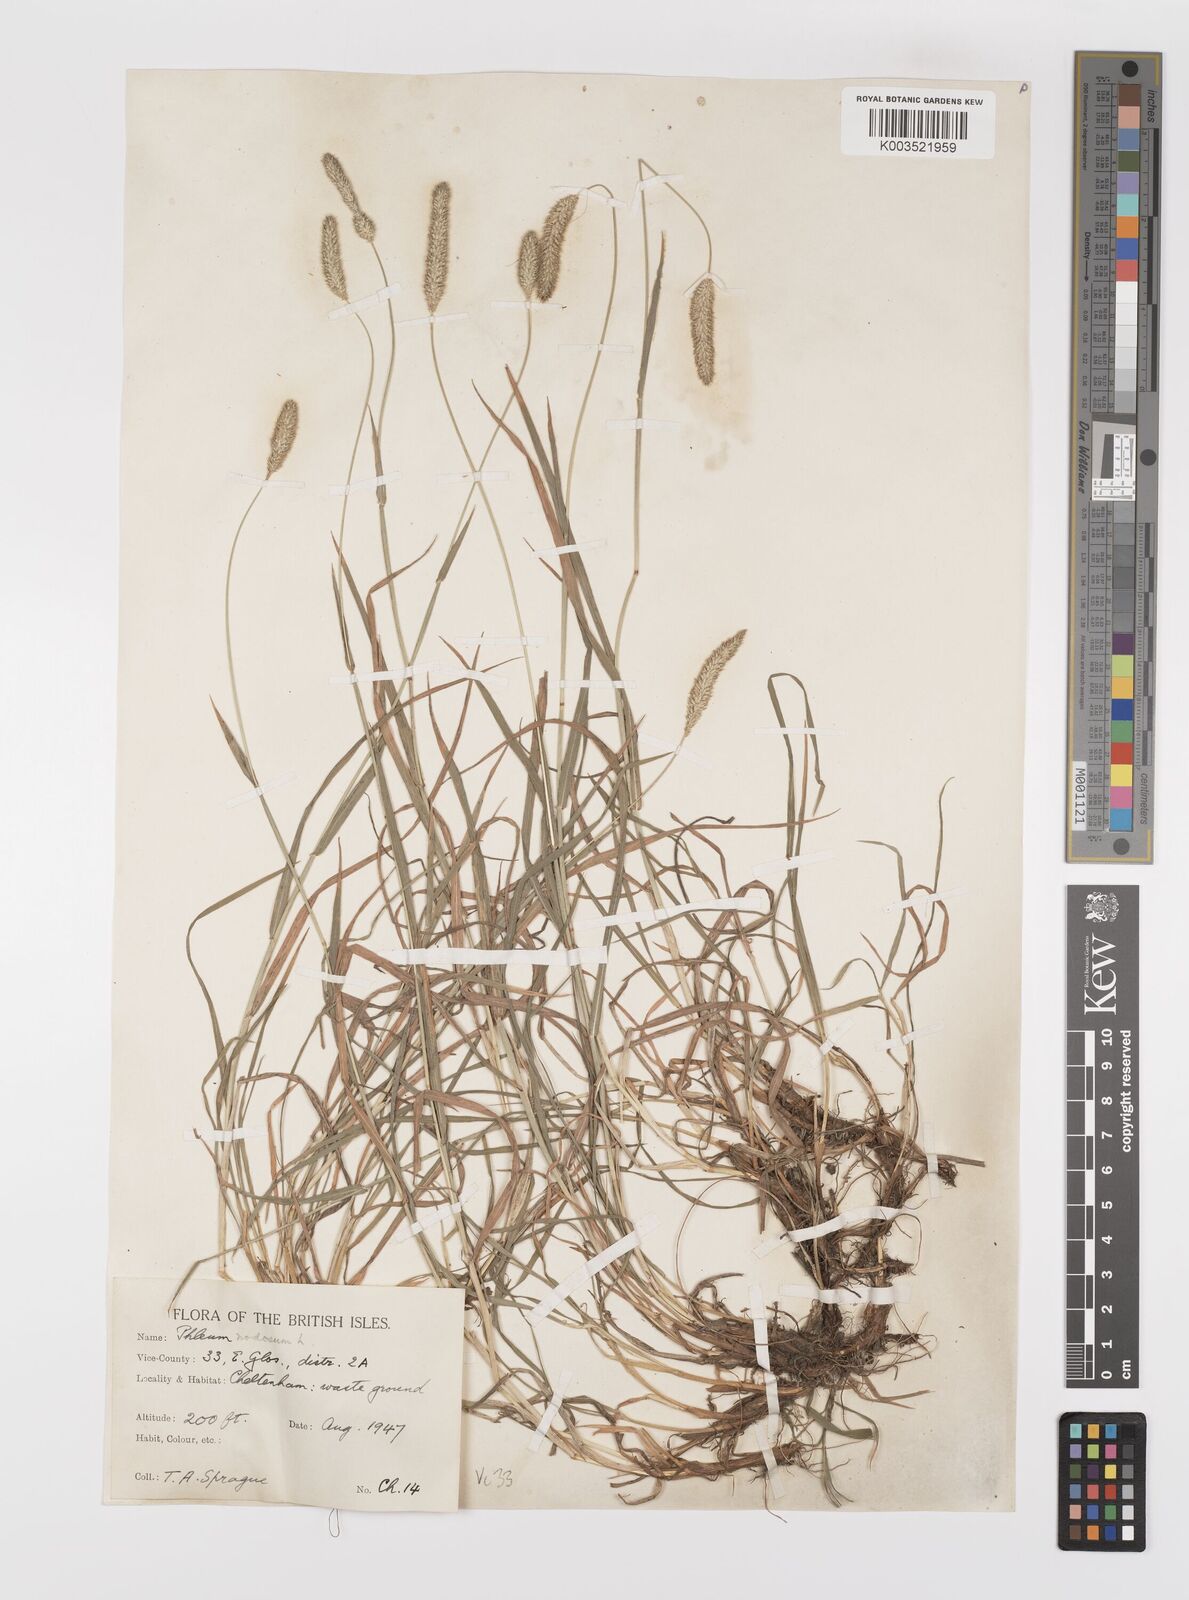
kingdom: Plantae
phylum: Tracheophyta
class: Liliopsida
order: Poales
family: Poaceae
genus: Phleum
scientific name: Phleum bertolonii
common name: Smaller cat's-tail
